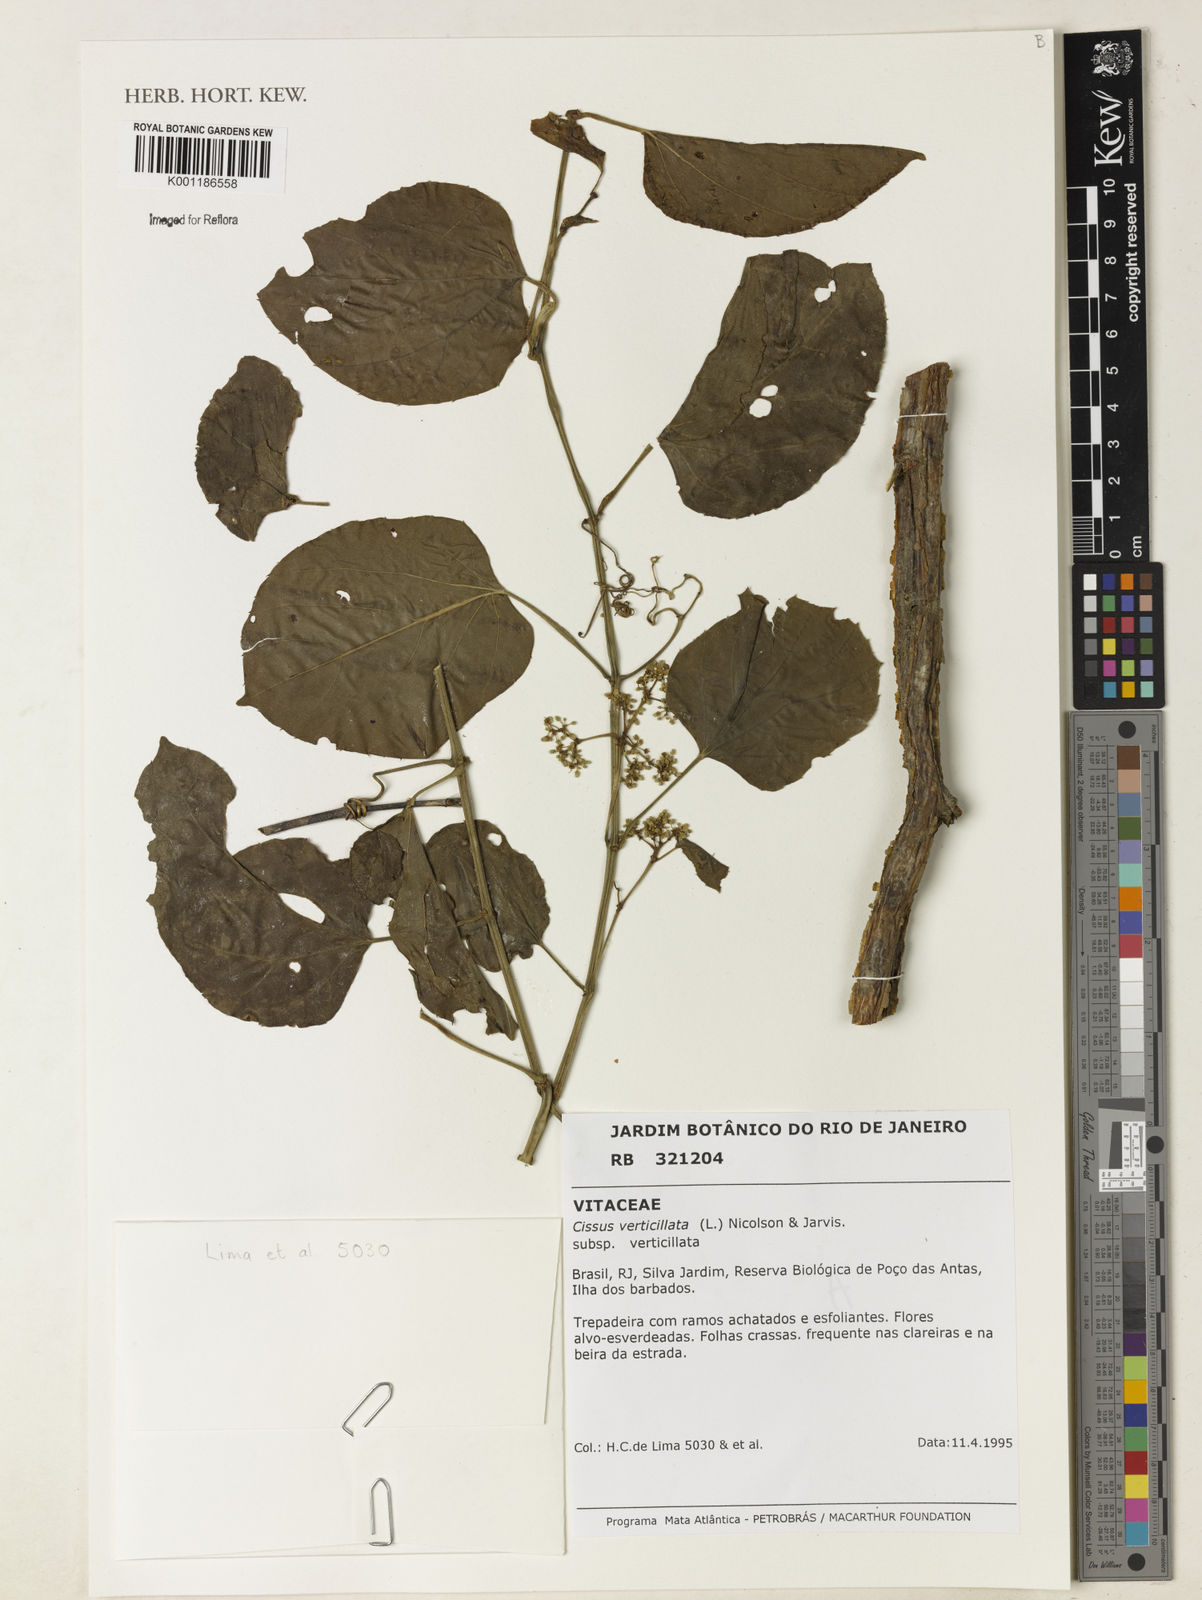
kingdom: Plantae
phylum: Tracheophyta
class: Magnoliopsida
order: Vitales
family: Vitaceae
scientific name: Vitaceae
